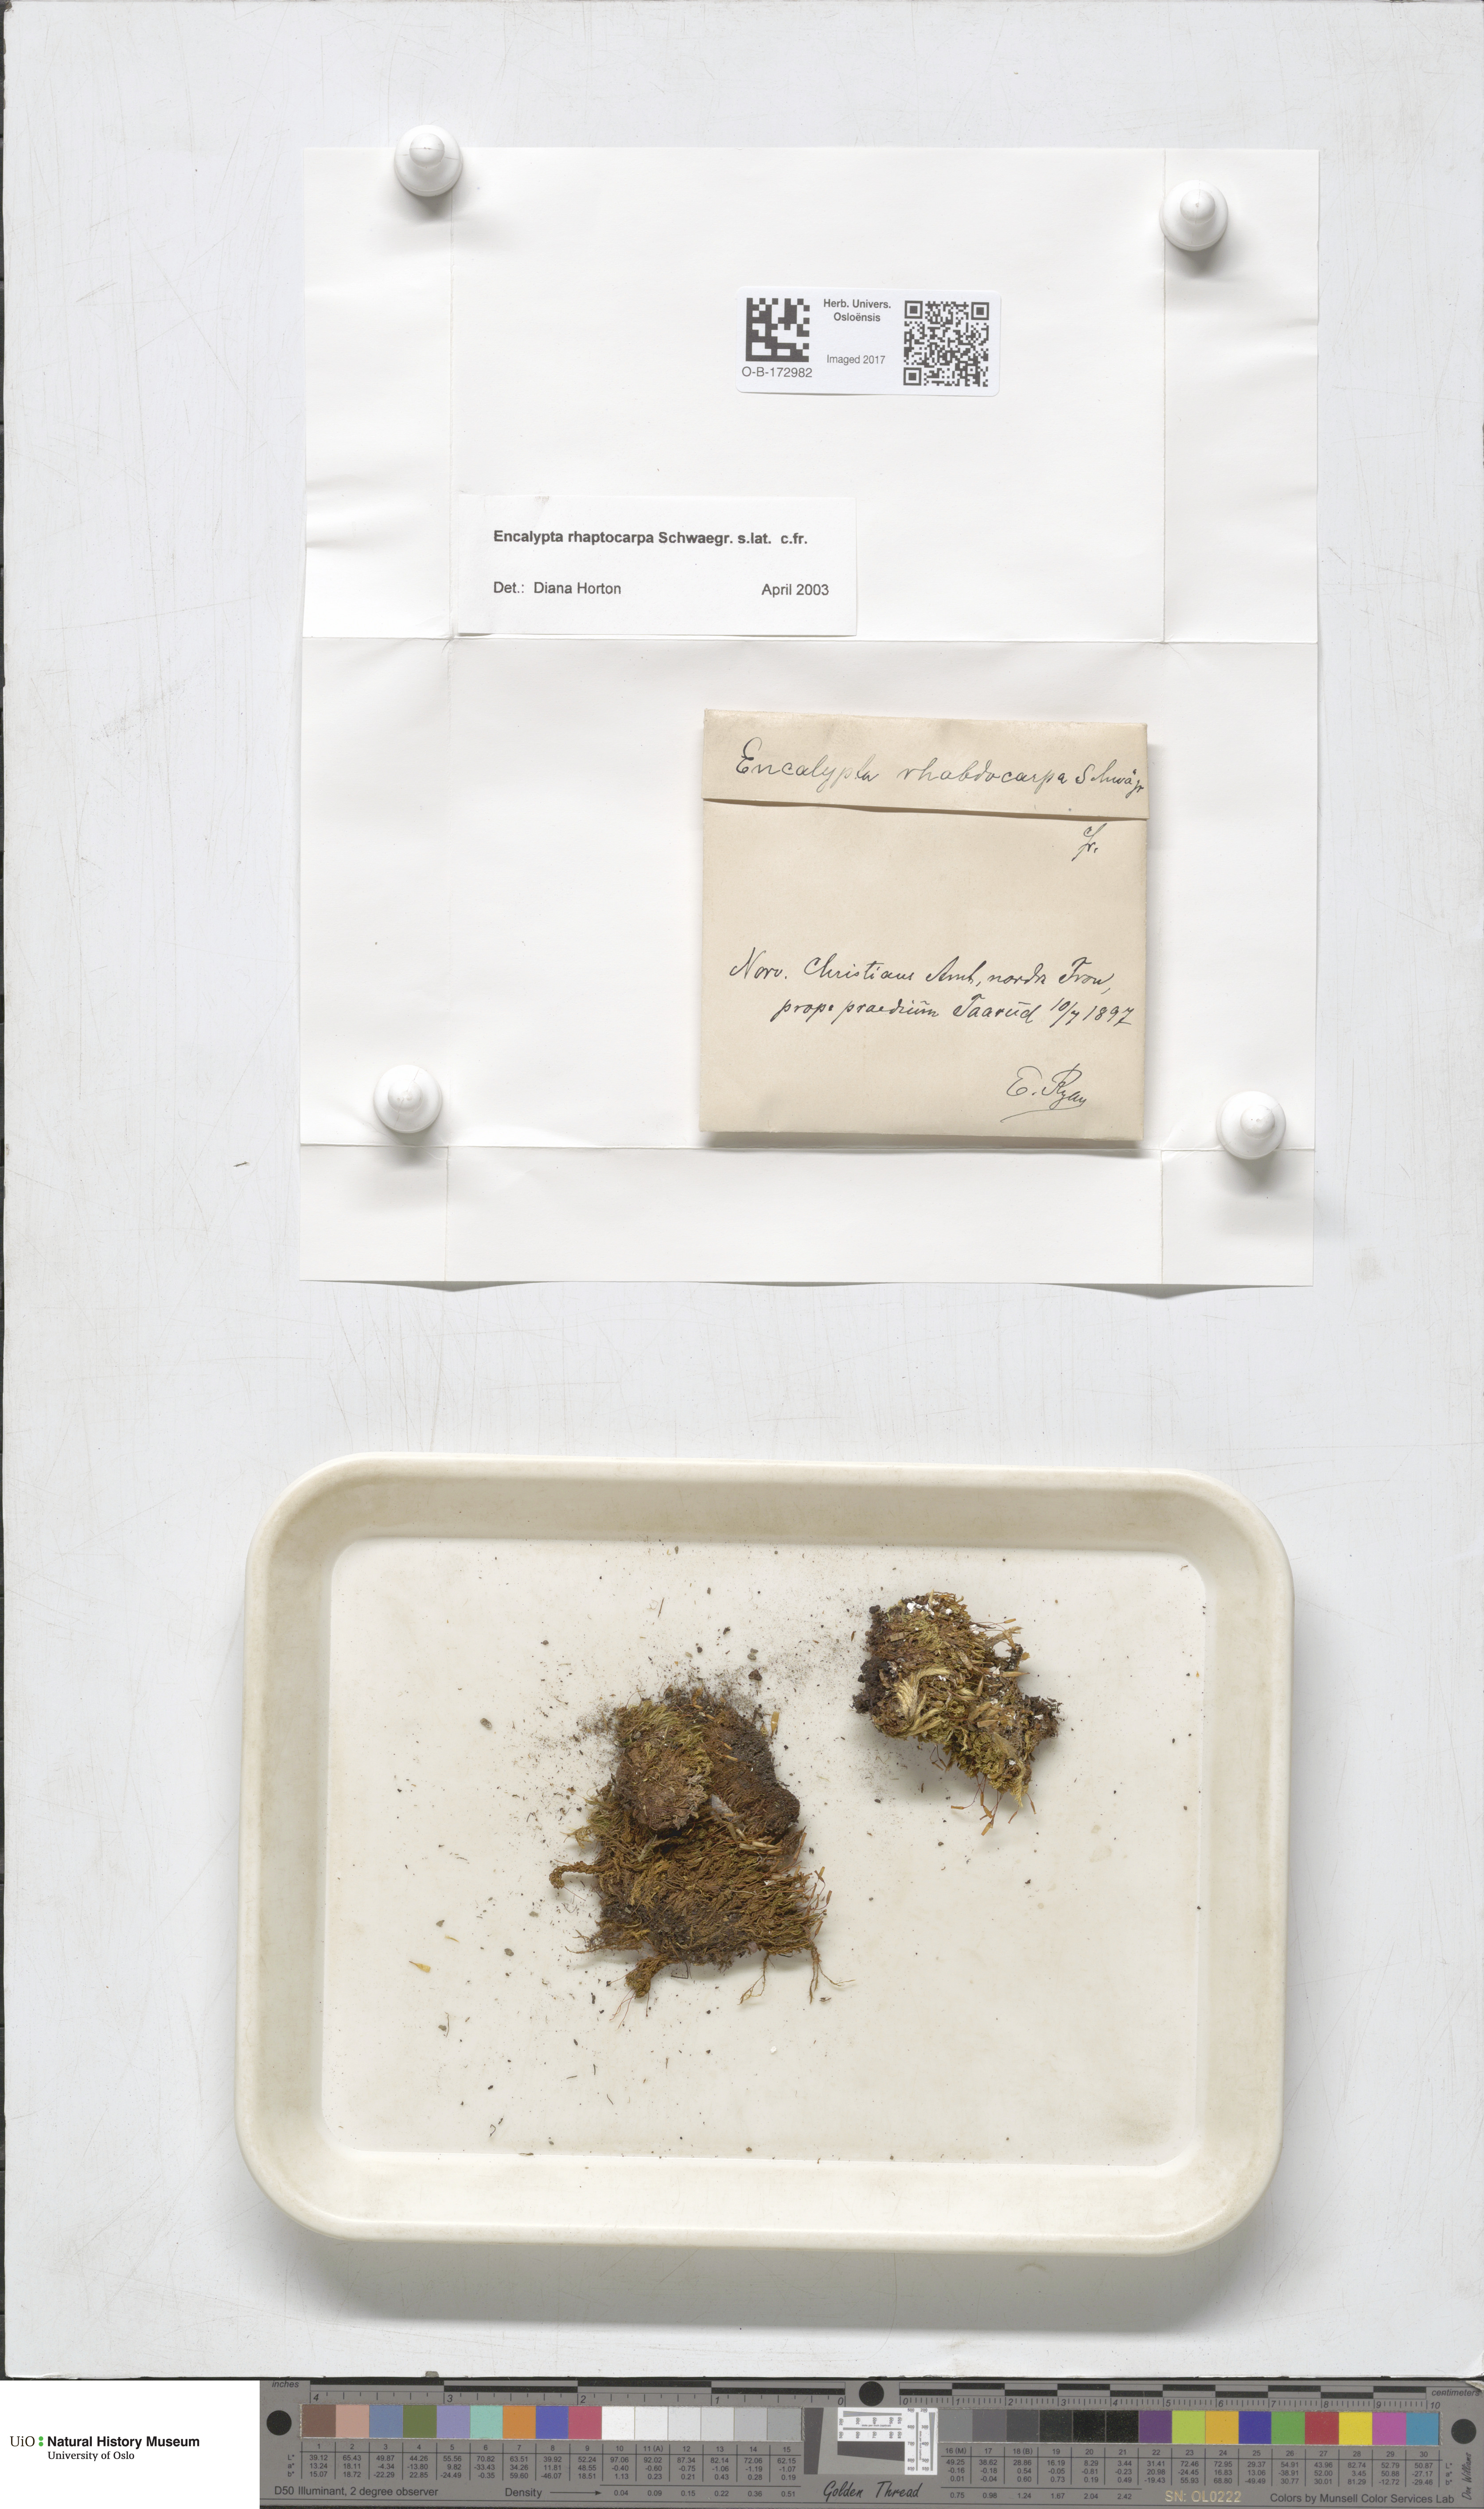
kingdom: Plantae
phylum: Bryophyta
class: Bryopsida
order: Encalyptales
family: Encalyptaceae
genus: Encalypta
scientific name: Encalypta rhaptocarpa
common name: Ribbed extinguisher moss
